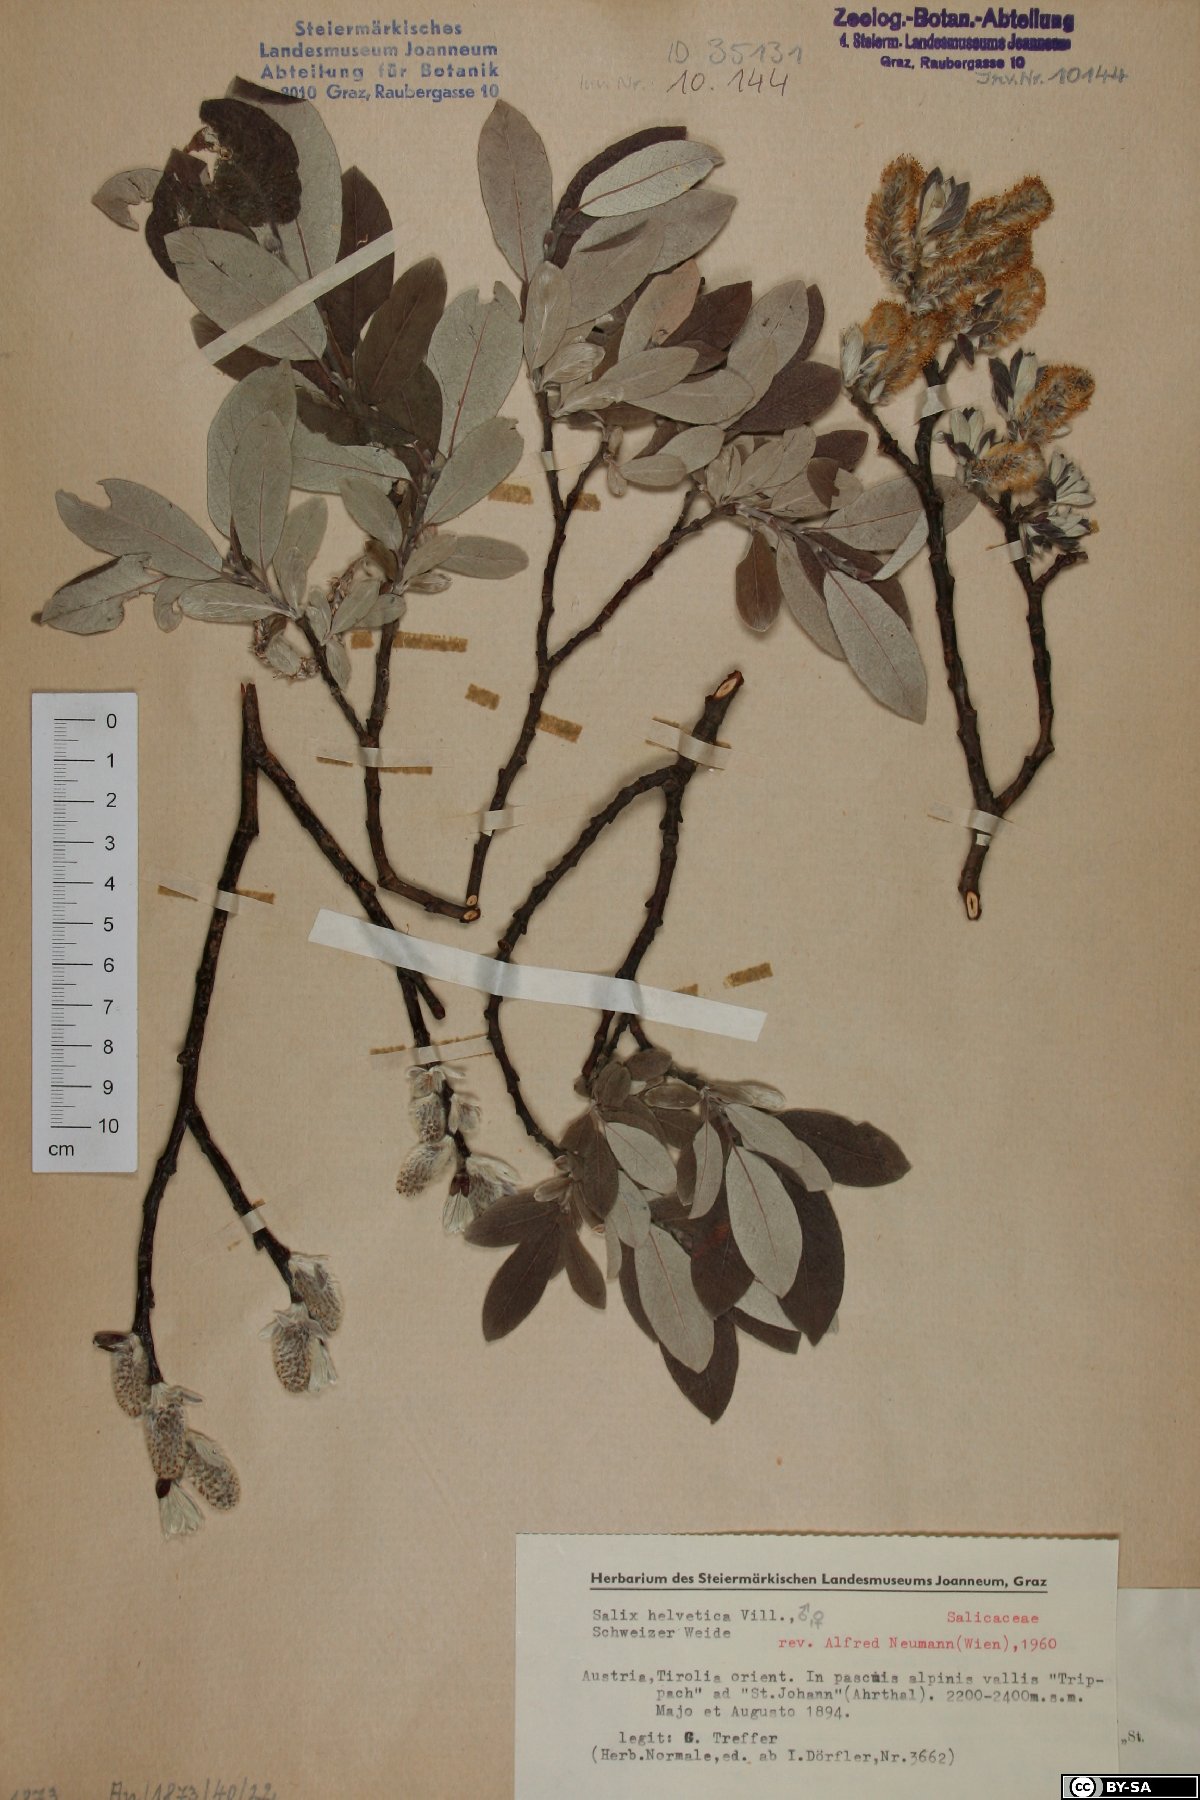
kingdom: Plantae
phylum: Tracheophyta
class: Magnoliopsida
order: Malpighiales
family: Salicaceae
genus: Salix
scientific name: Salix helvetica
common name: Swiss willow
